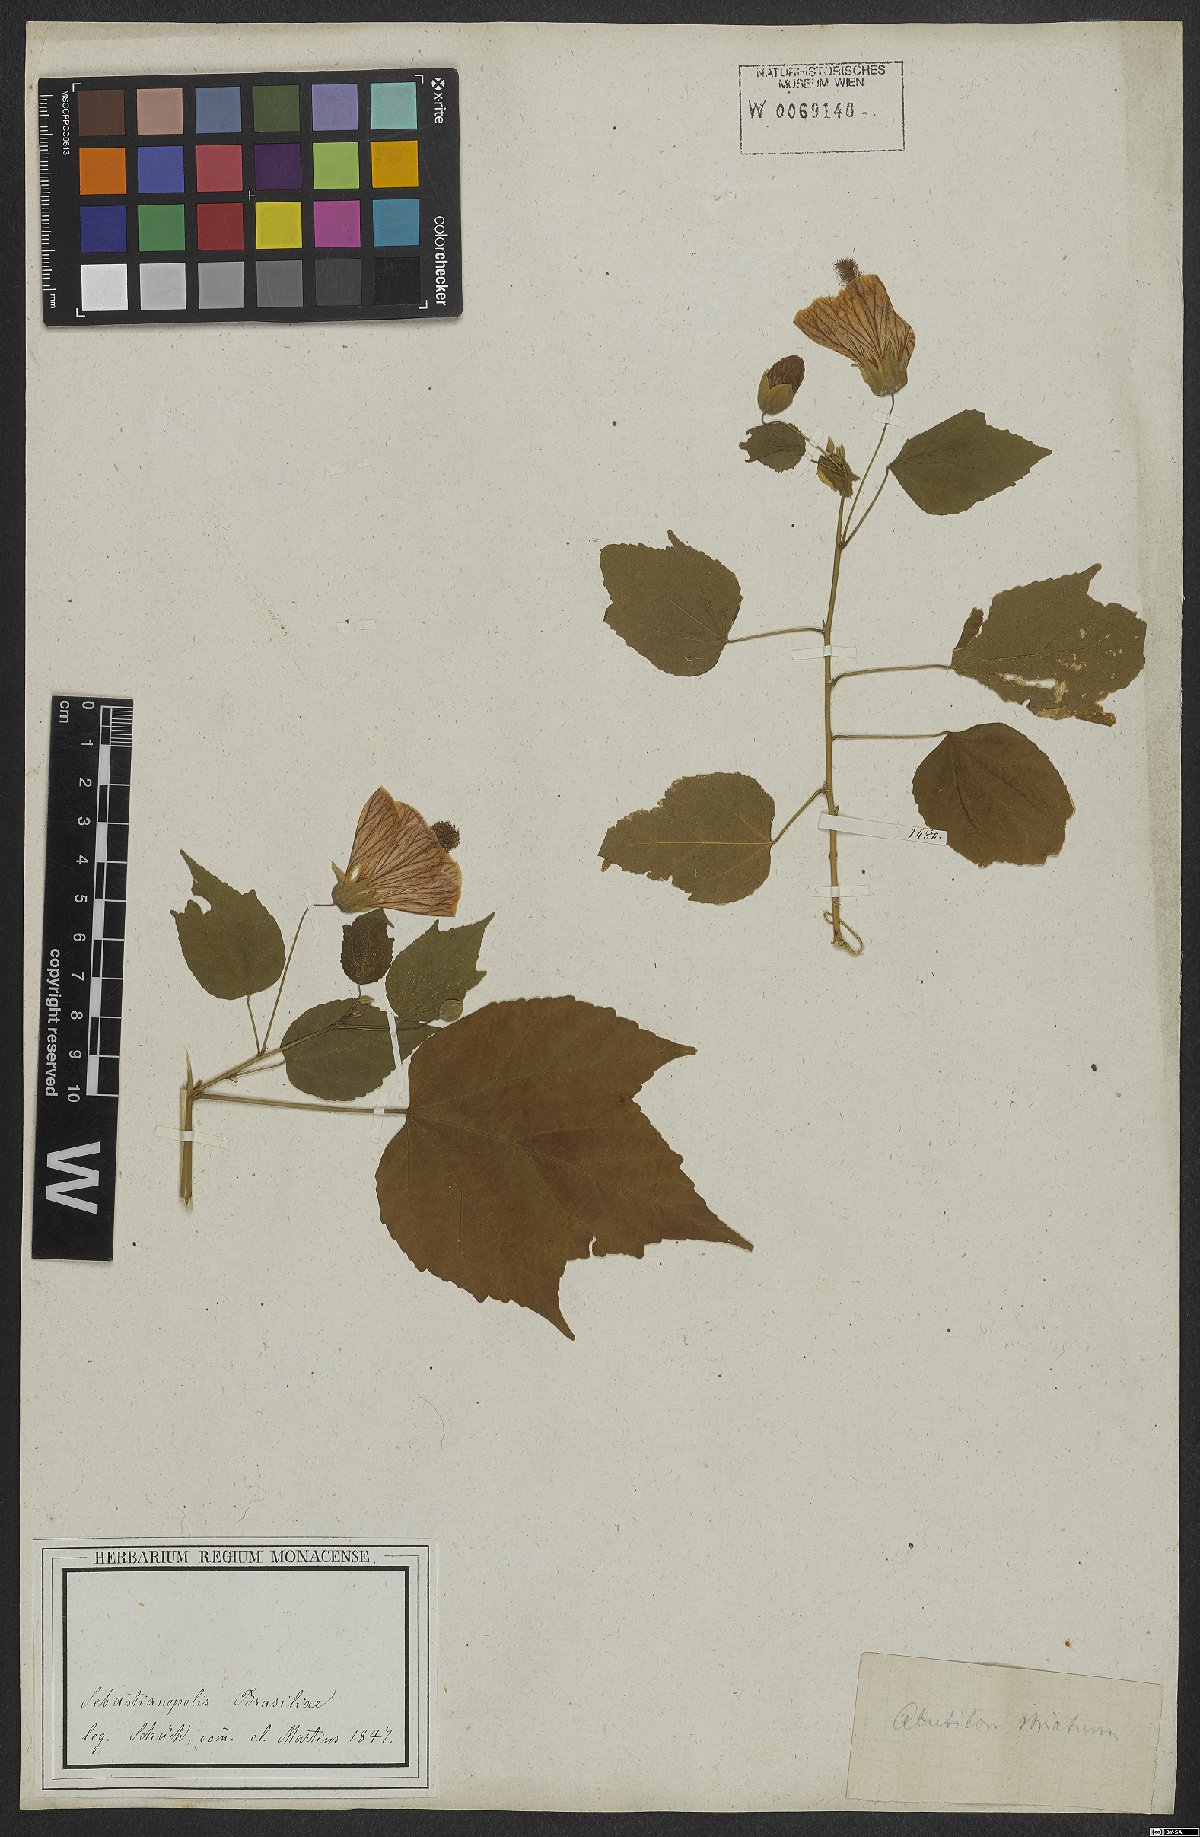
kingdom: Plantae
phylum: Tracheophyta
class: Magnoliopsida
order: Malvales
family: Malvaceae
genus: Callianthe
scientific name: Callianthe striata
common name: Flowering-maple
